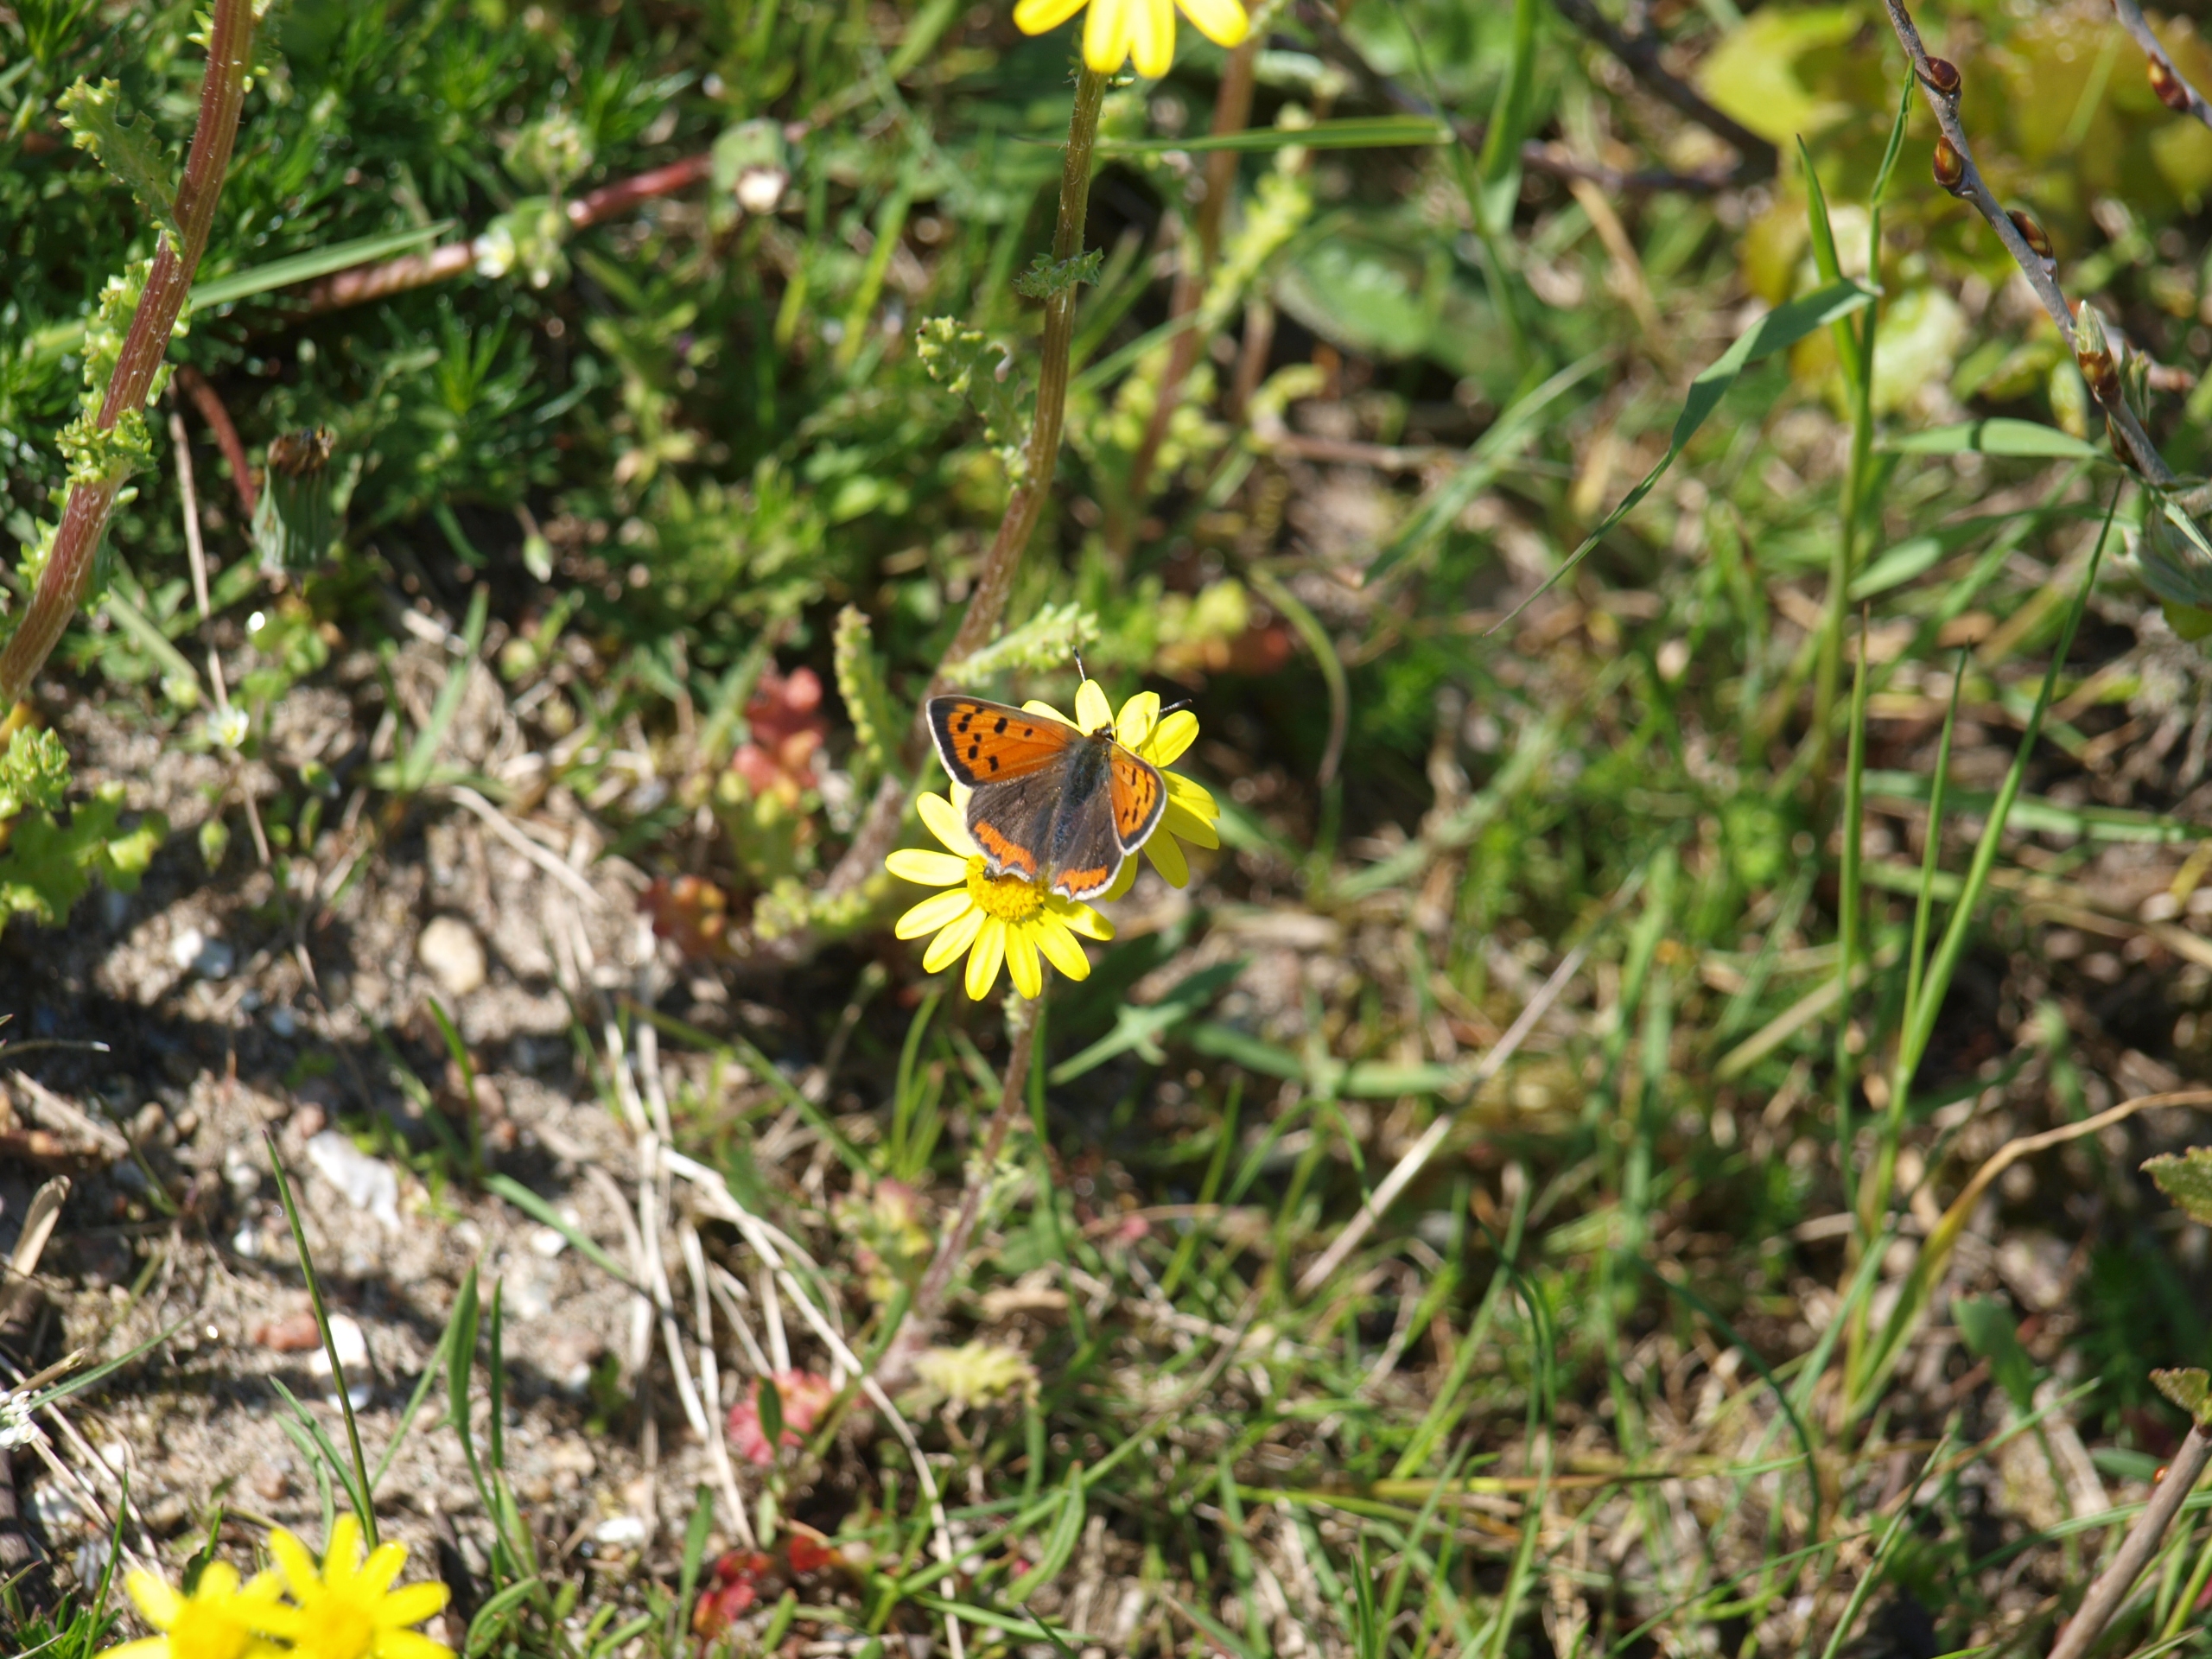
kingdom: Animalia
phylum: Arthropoda
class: Insecta
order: Lepidoptera
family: Lycaenidae
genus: Lycaena
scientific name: Lycaena phlaeas
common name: Lille ildfugl
